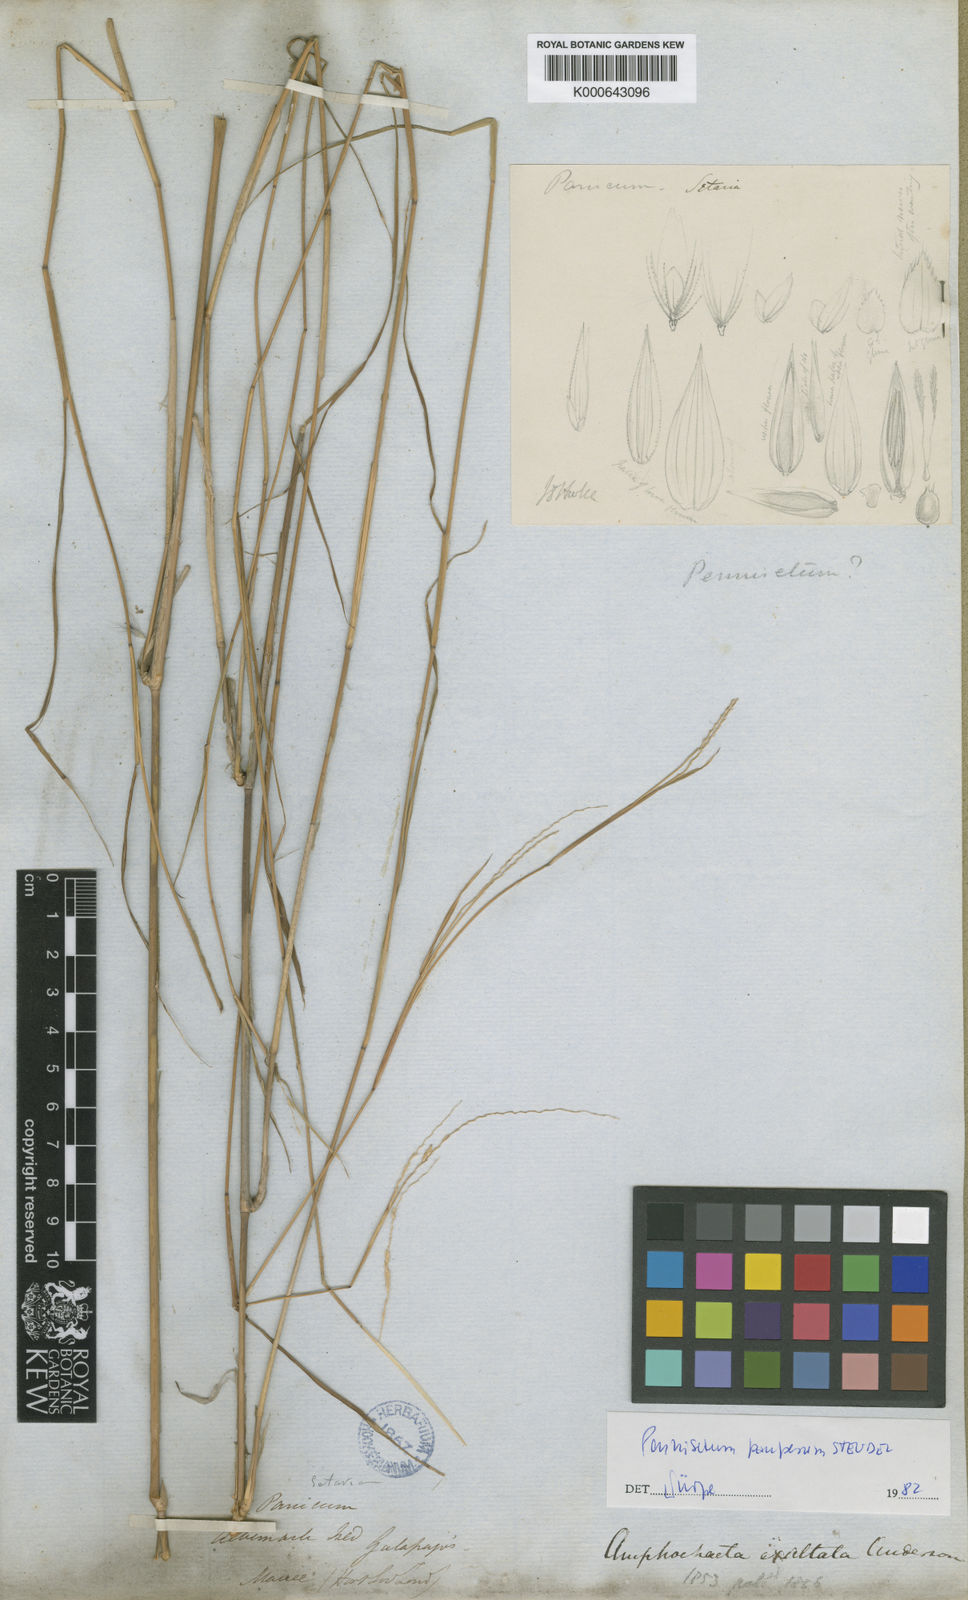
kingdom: Plantae
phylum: Tracheophyta
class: Liliopsida
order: Poales
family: Poaceae
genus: Cenchrus
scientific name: Cenchrus pauper
